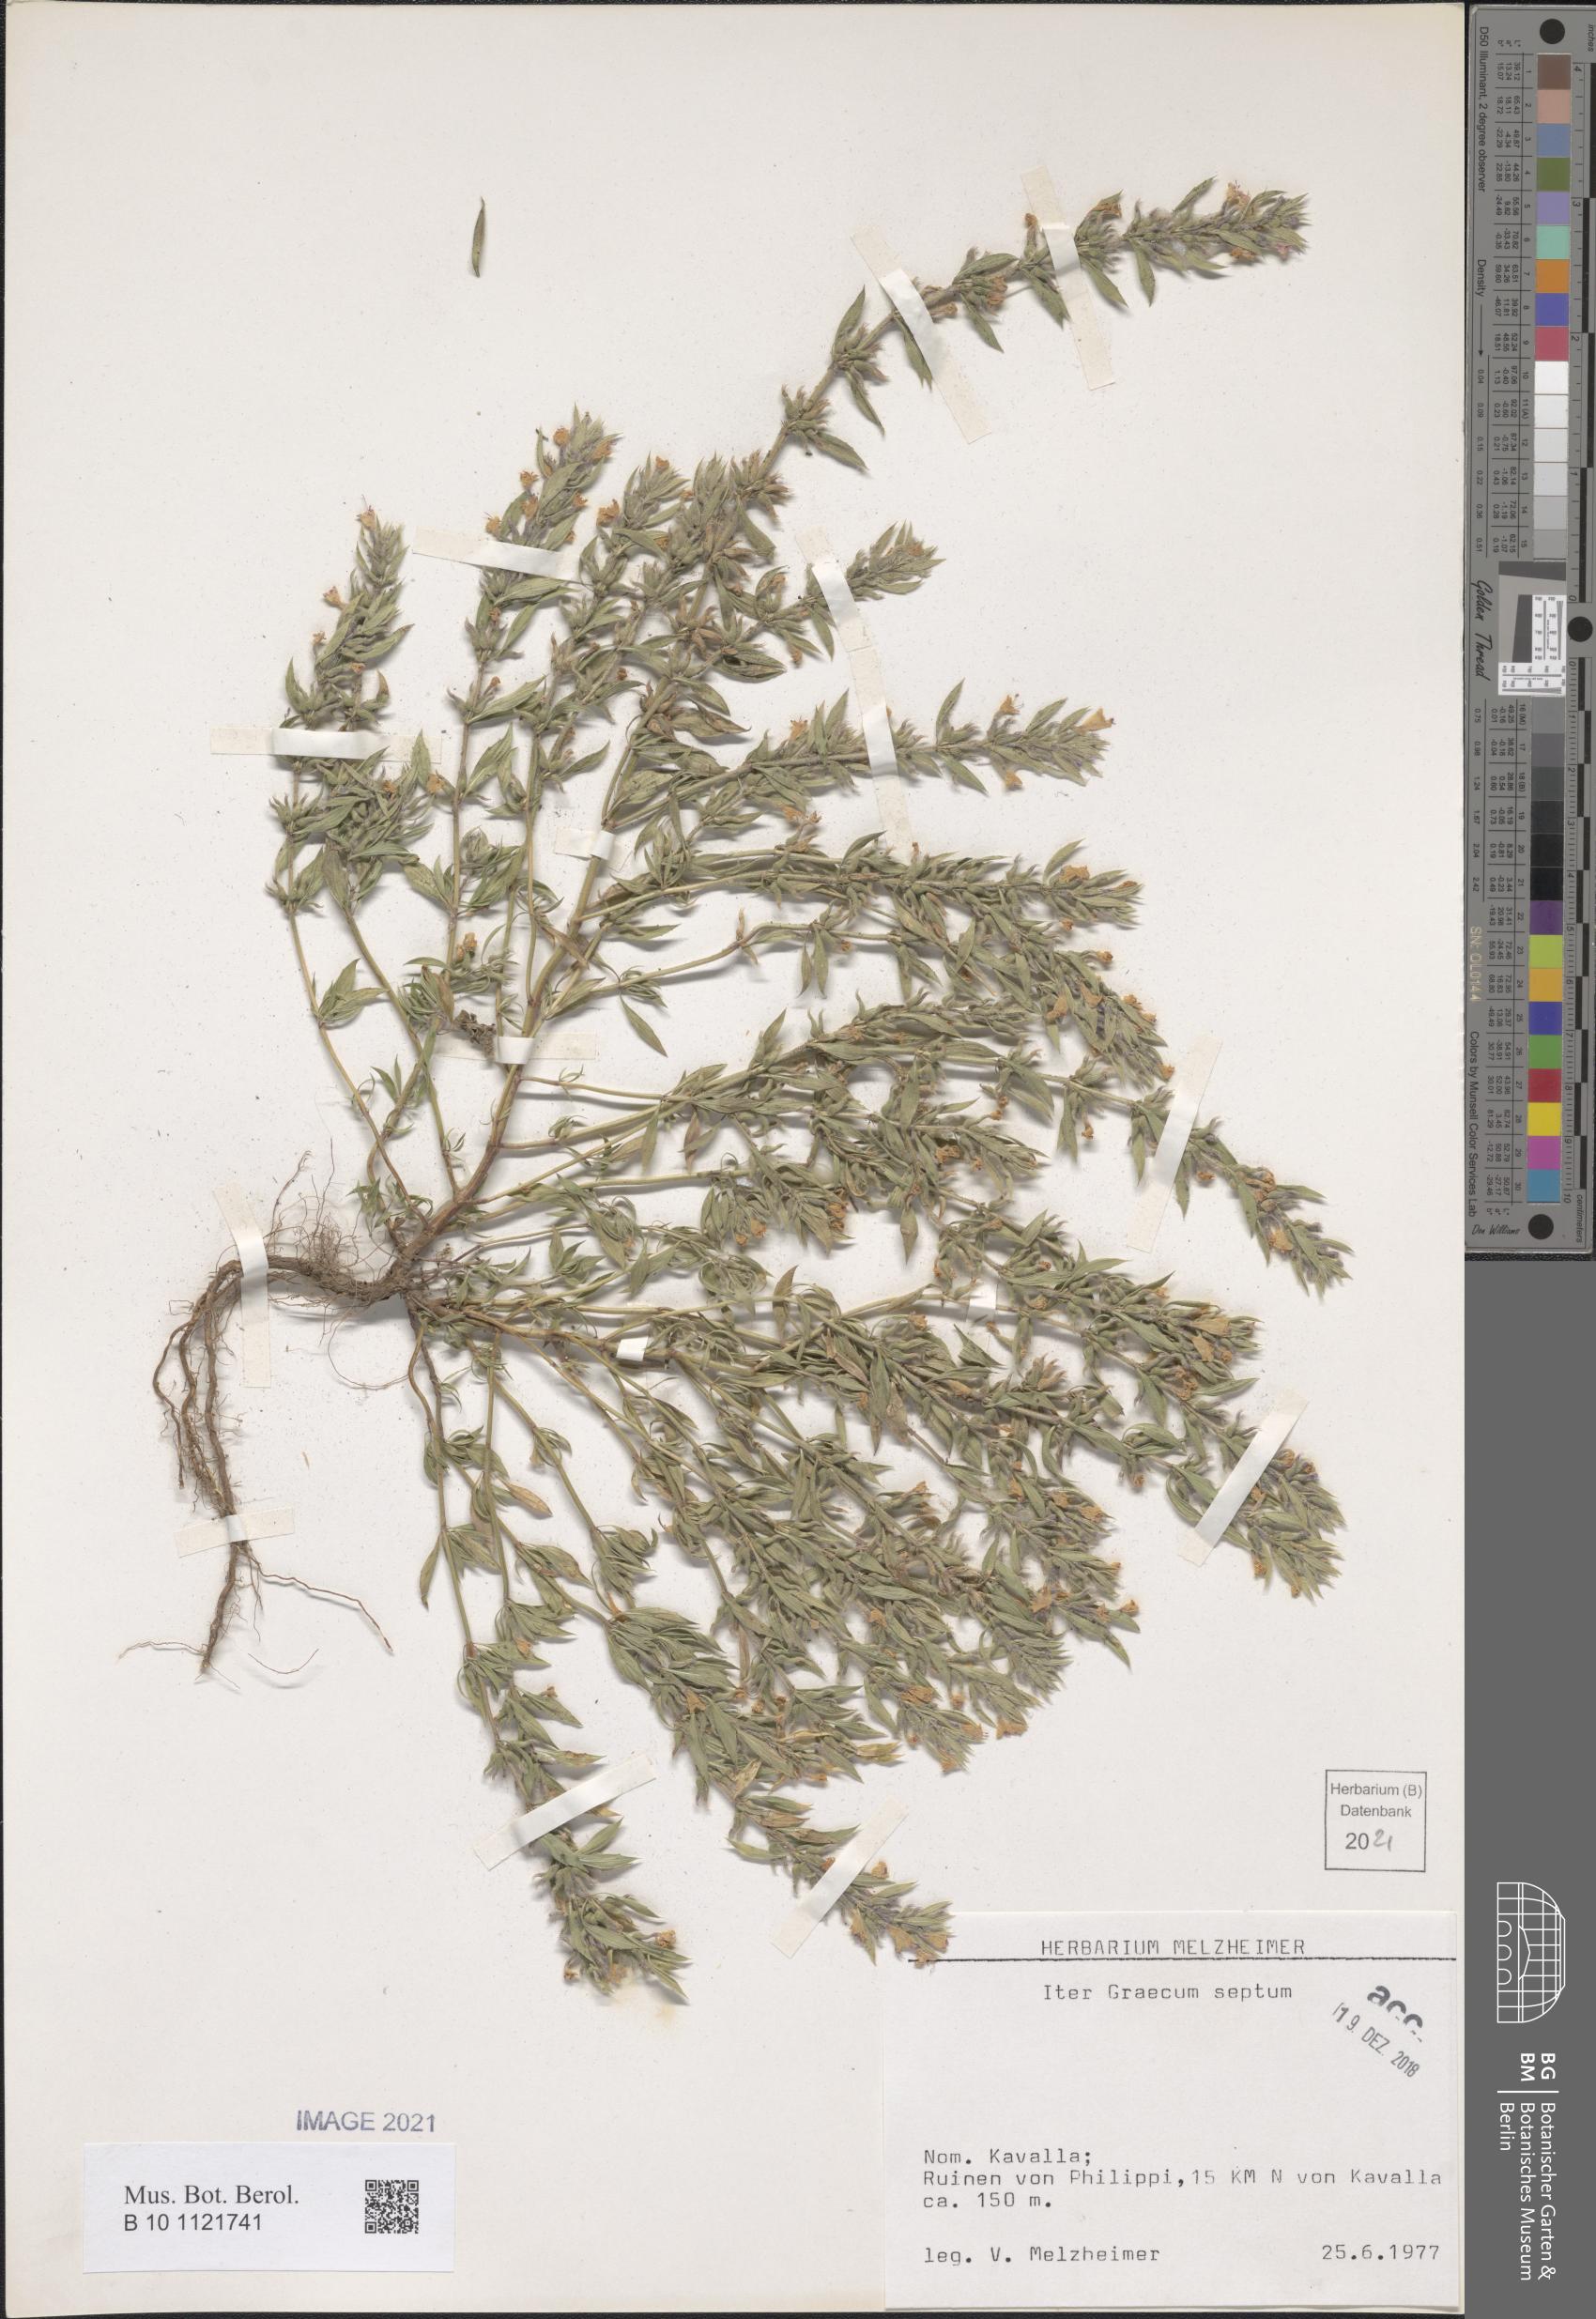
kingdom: Plantae
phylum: Tracheophyta
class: Magnoliopsida
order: Lamiales
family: Lamiaceae
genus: Acinos
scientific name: Acinos
